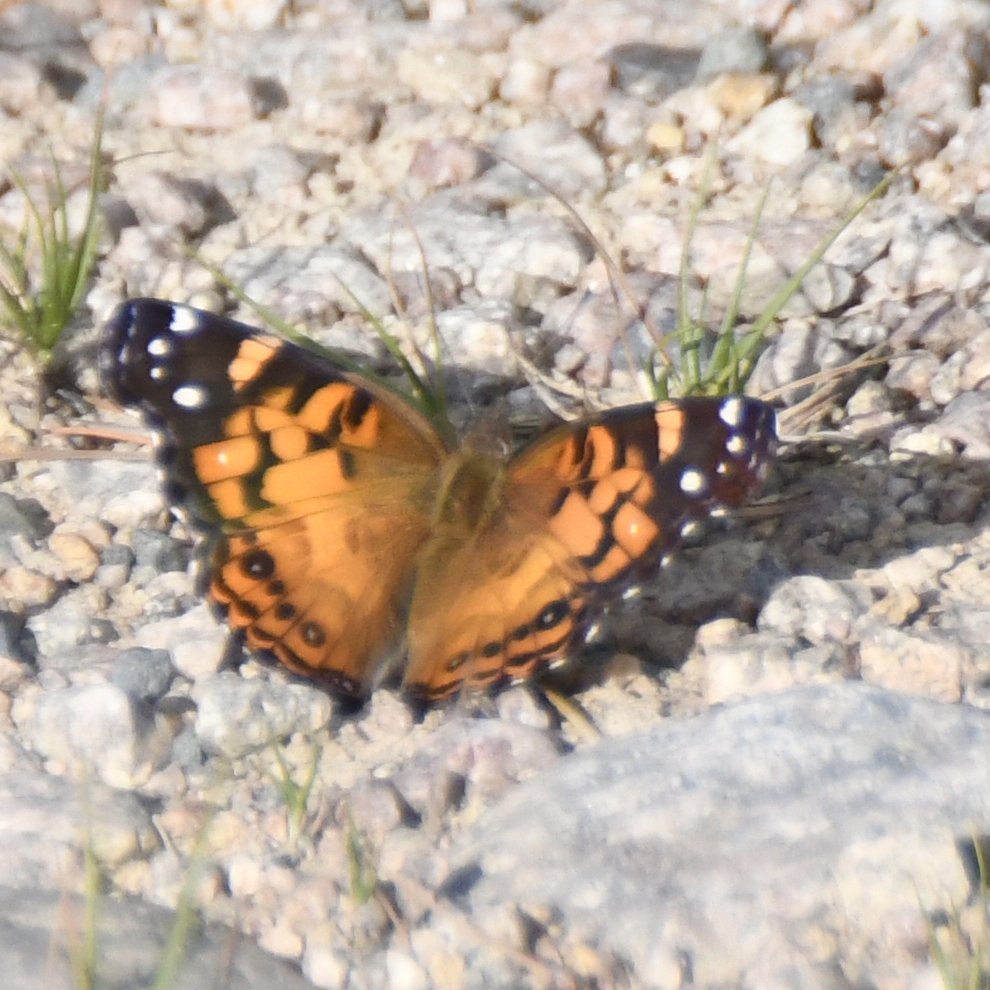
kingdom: Animalia
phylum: Arthropoda
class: Insecta
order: Lepidoptera
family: Nymphalidae
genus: Vanessa
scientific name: Vanessa virginiensis
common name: American Lady
